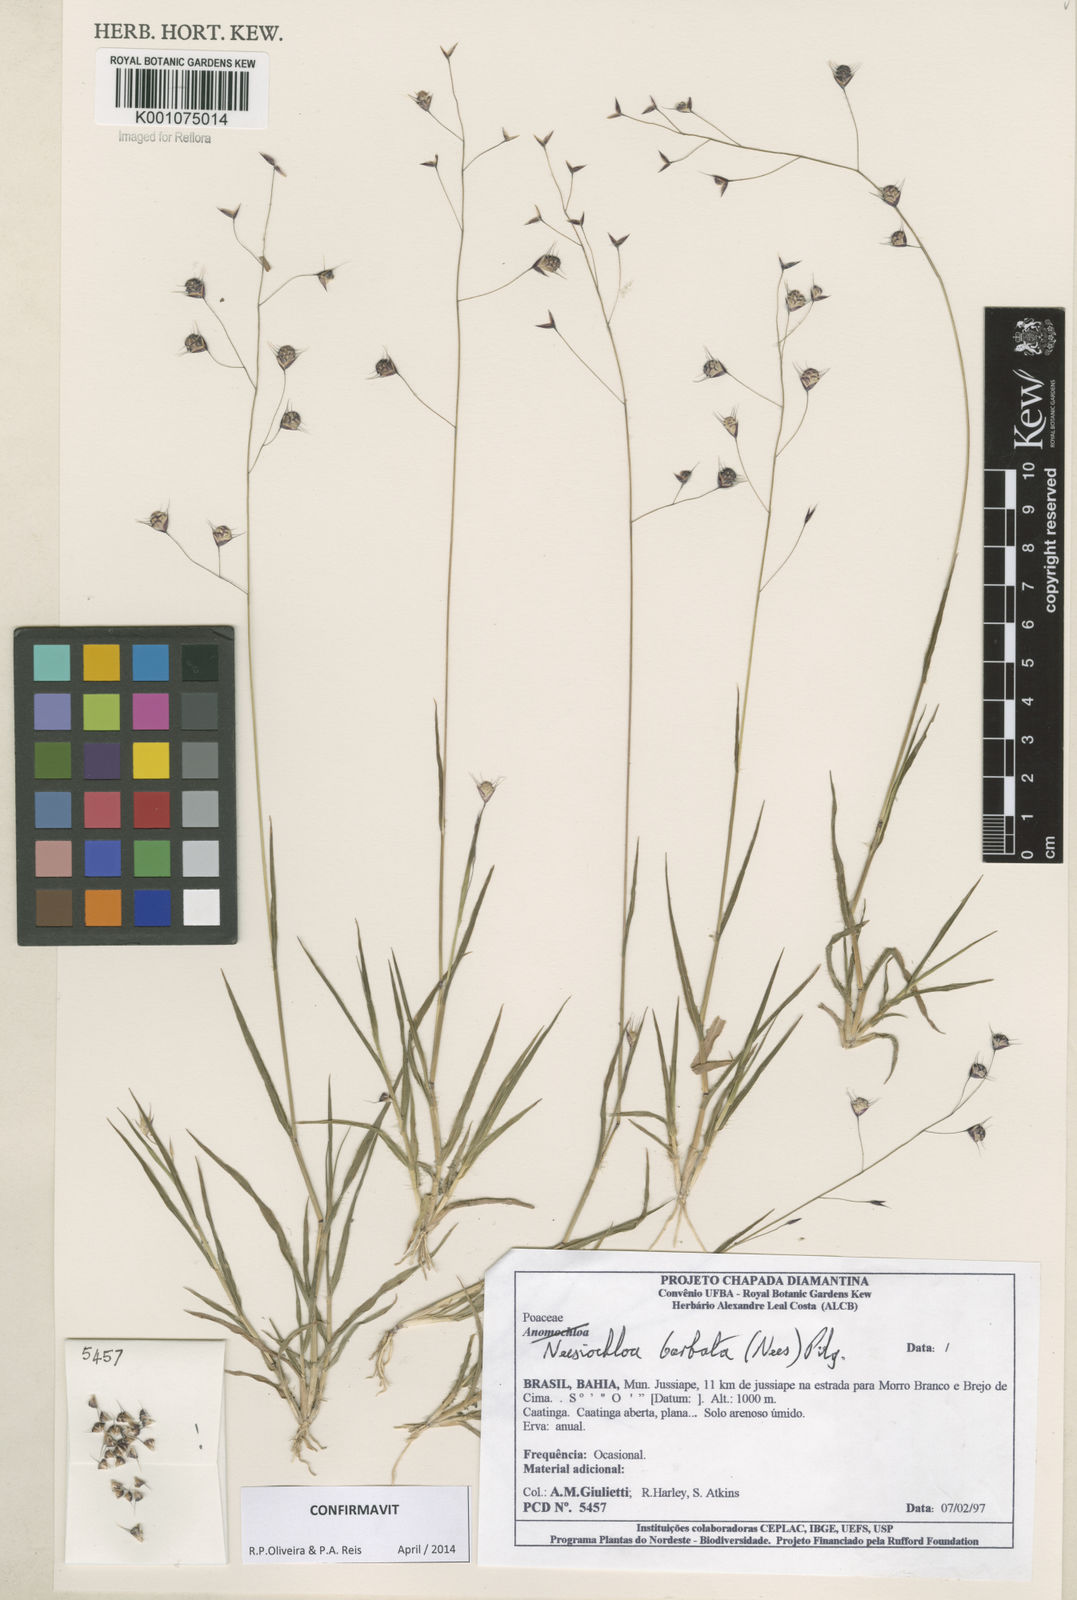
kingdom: Plantae
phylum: Tracheophyta
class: Liliopsida
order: Poales
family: Poaceae
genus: Neesiochloa
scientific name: Neesiochloa barbata
